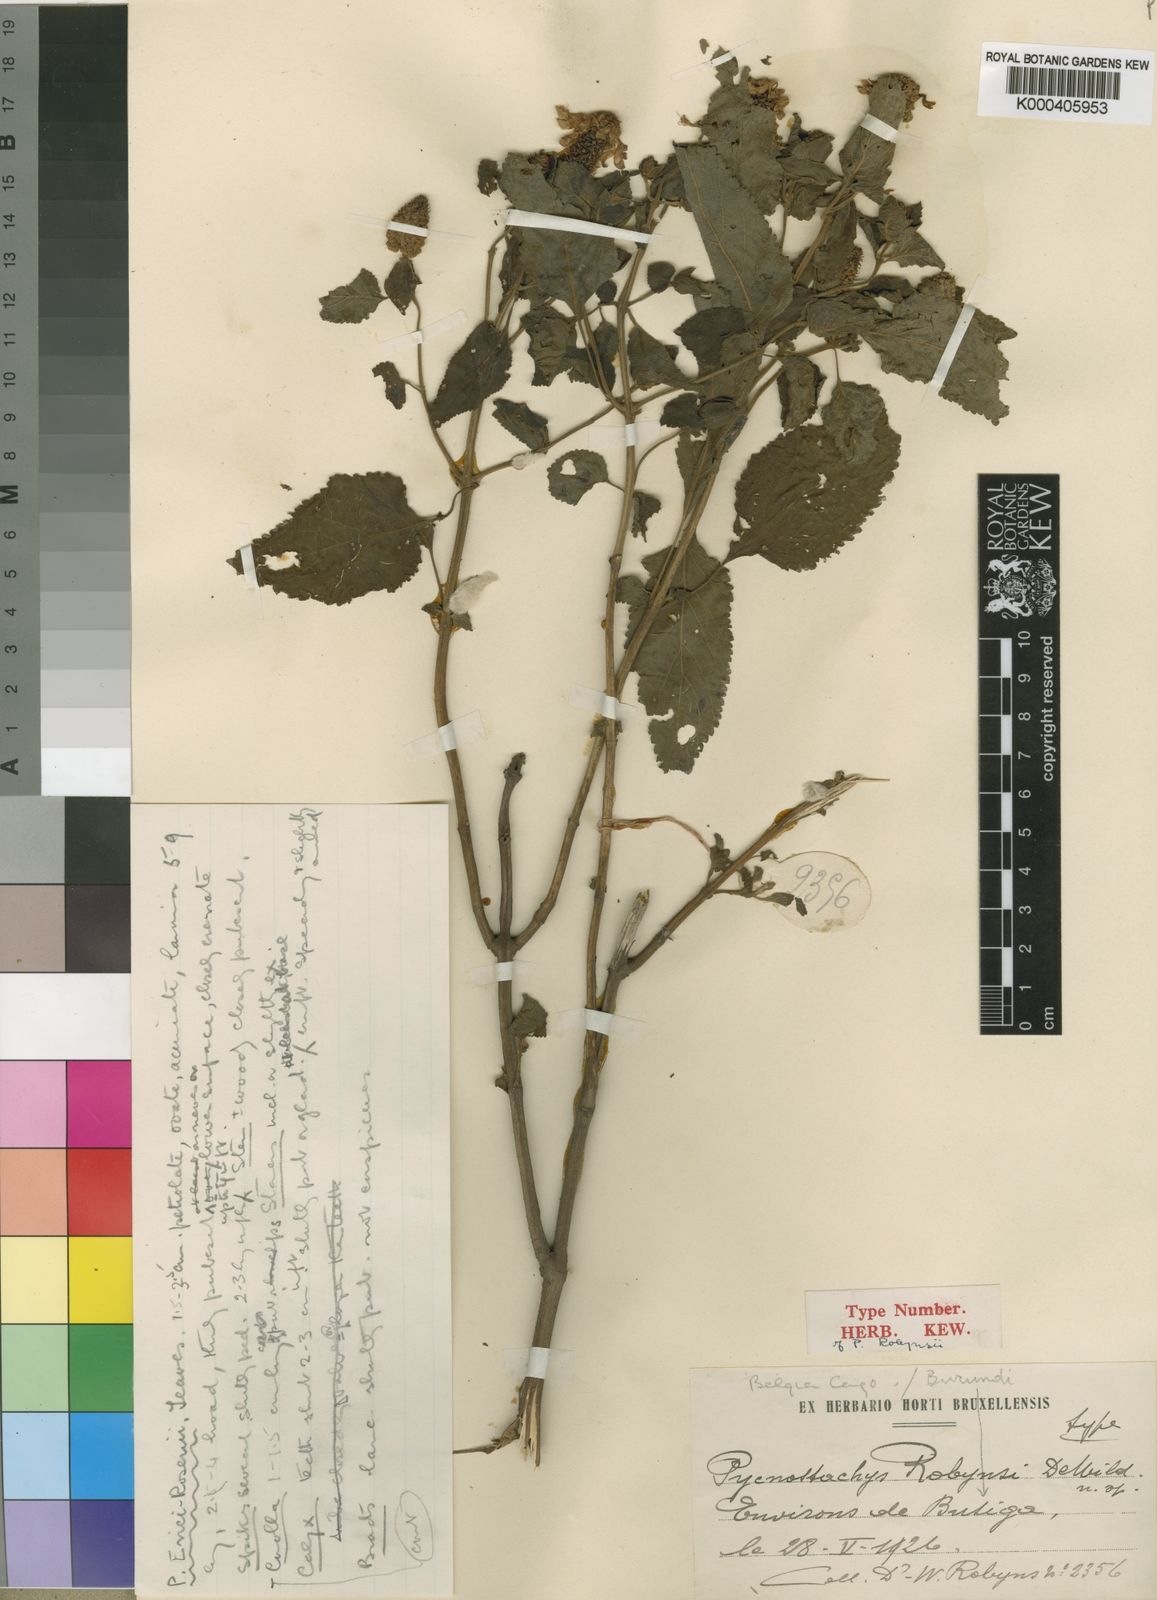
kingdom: Plantae
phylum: Tracheophyta
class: Magnoliopsida
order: Lamiales
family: Lamiaceae
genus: Coleus
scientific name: Coleus erici-rosenii
